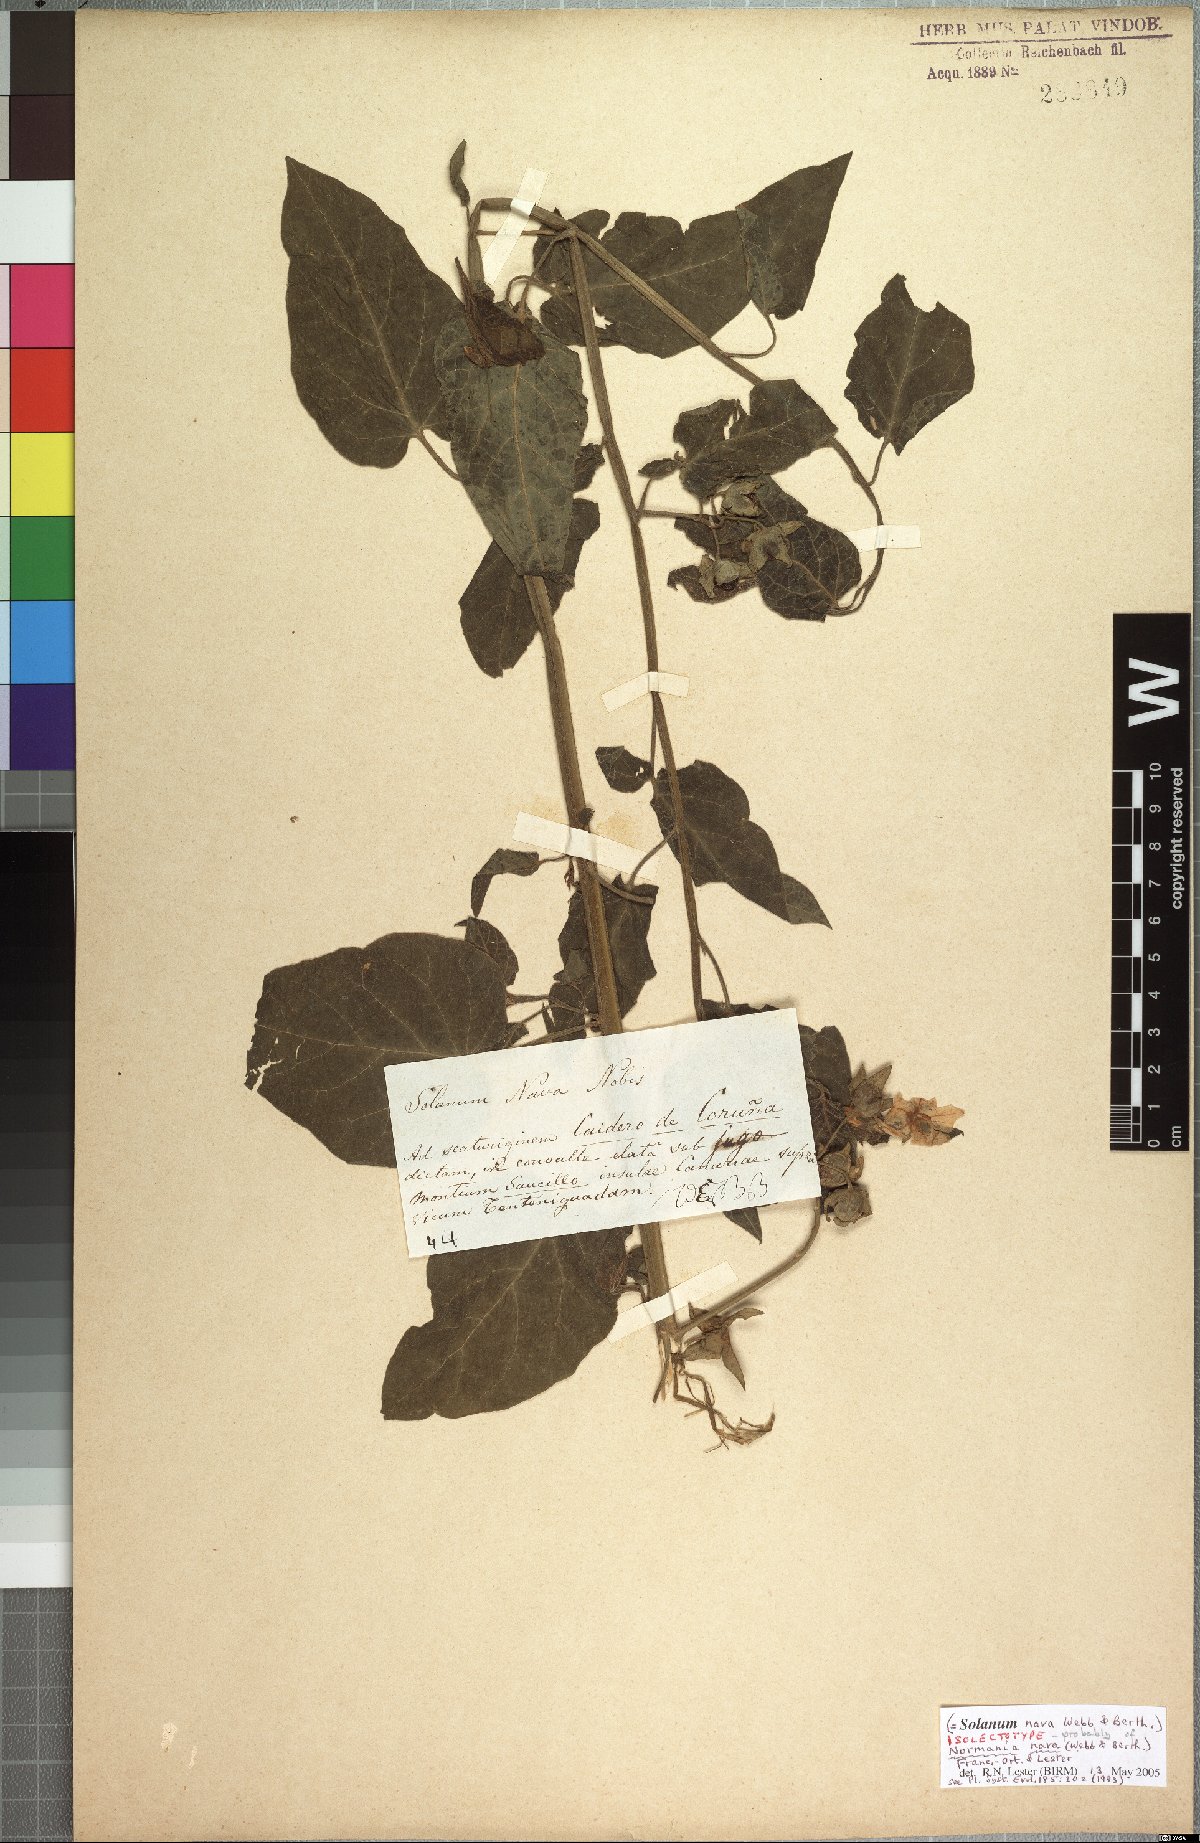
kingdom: Plantae
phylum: Tracheophyta
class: Magnoliopsida
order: Solanales
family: Solanaceae
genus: Solanum
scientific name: Solanum nava
